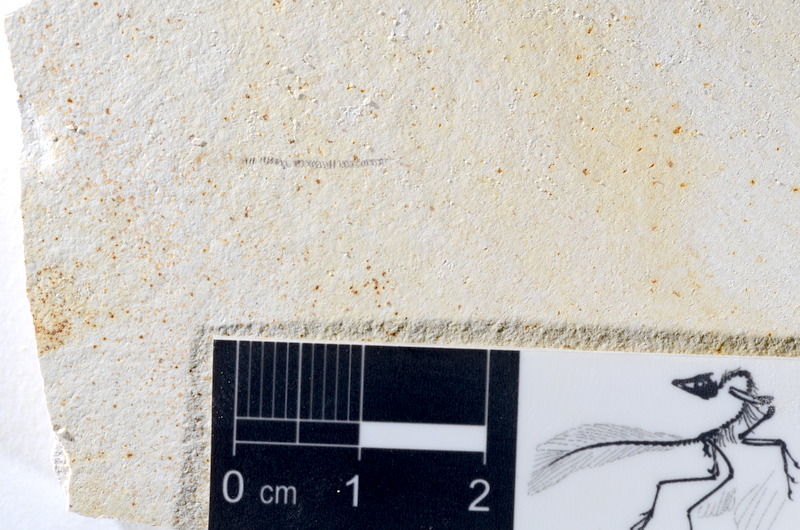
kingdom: Animalia
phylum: Chordata
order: Salmoniformes
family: Orthogonikleithridae
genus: Orthogonikleithrus
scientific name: Orthogonikleithrus hoelli
